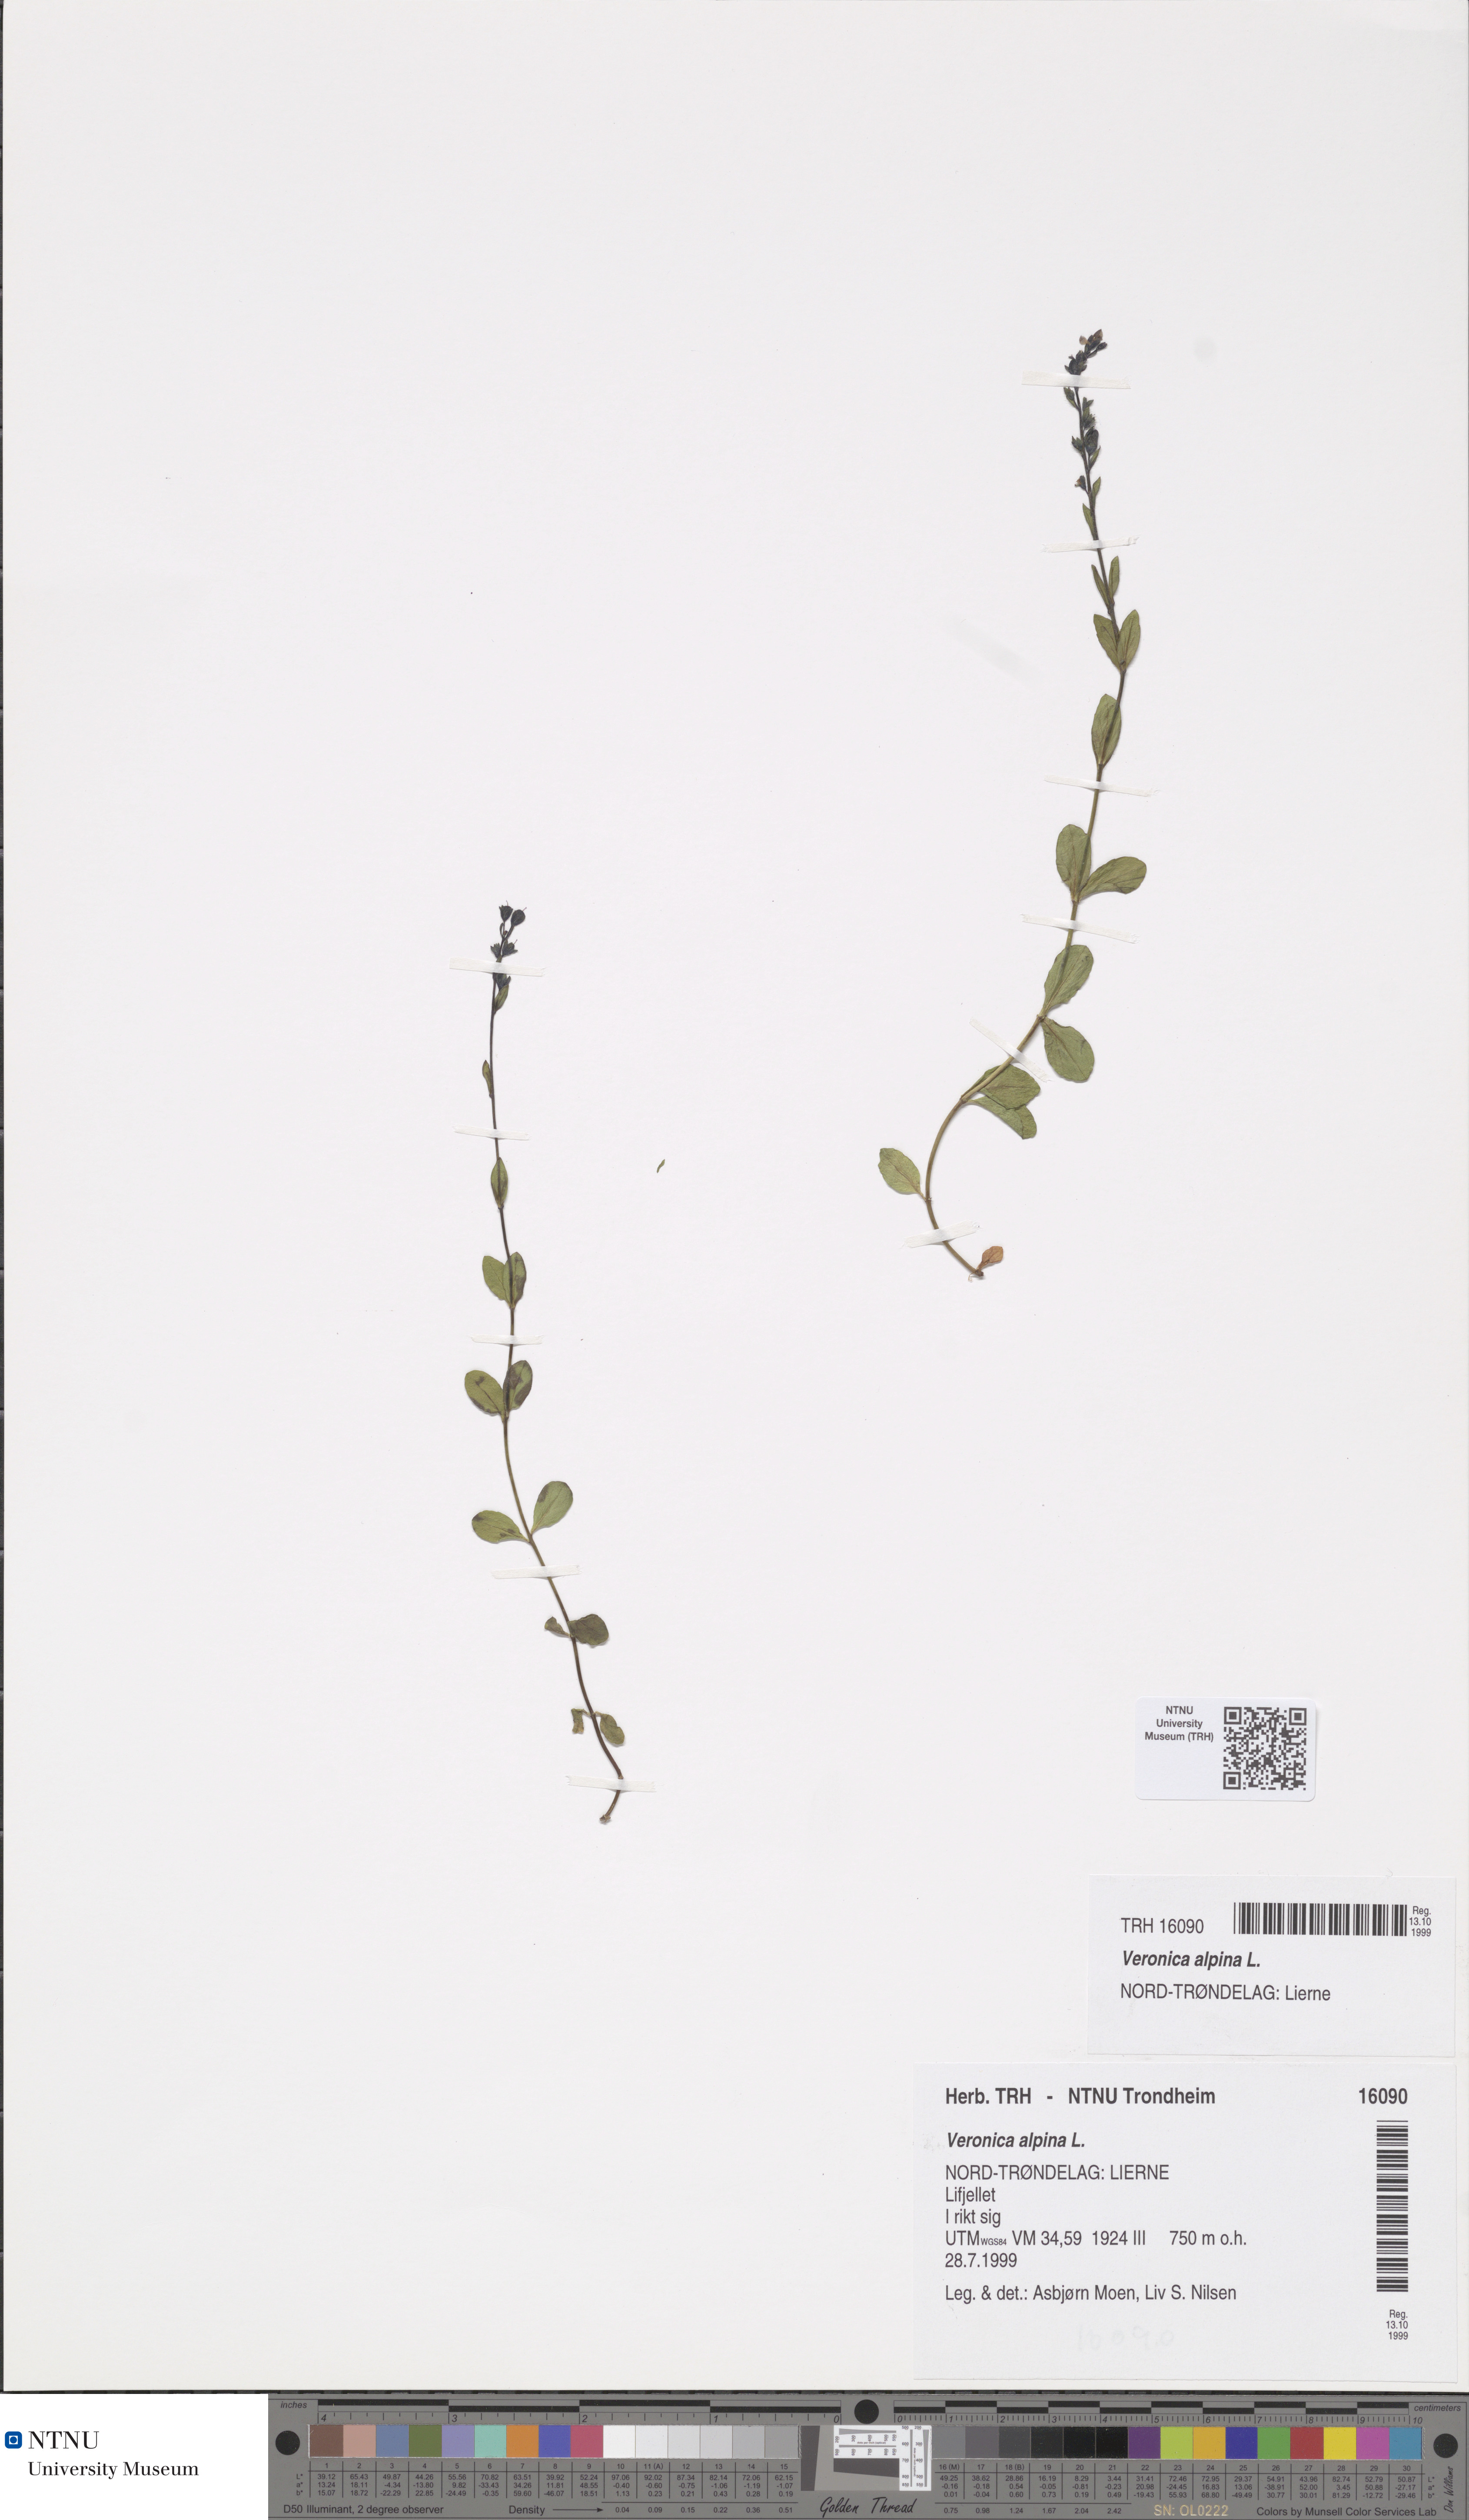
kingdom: Plantae
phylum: Tracheophyta
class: Magnoliopsida
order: Lamiales
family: Plantaginaceae
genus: Veronica
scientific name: Veronica alpina
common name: Alpine speedwell
